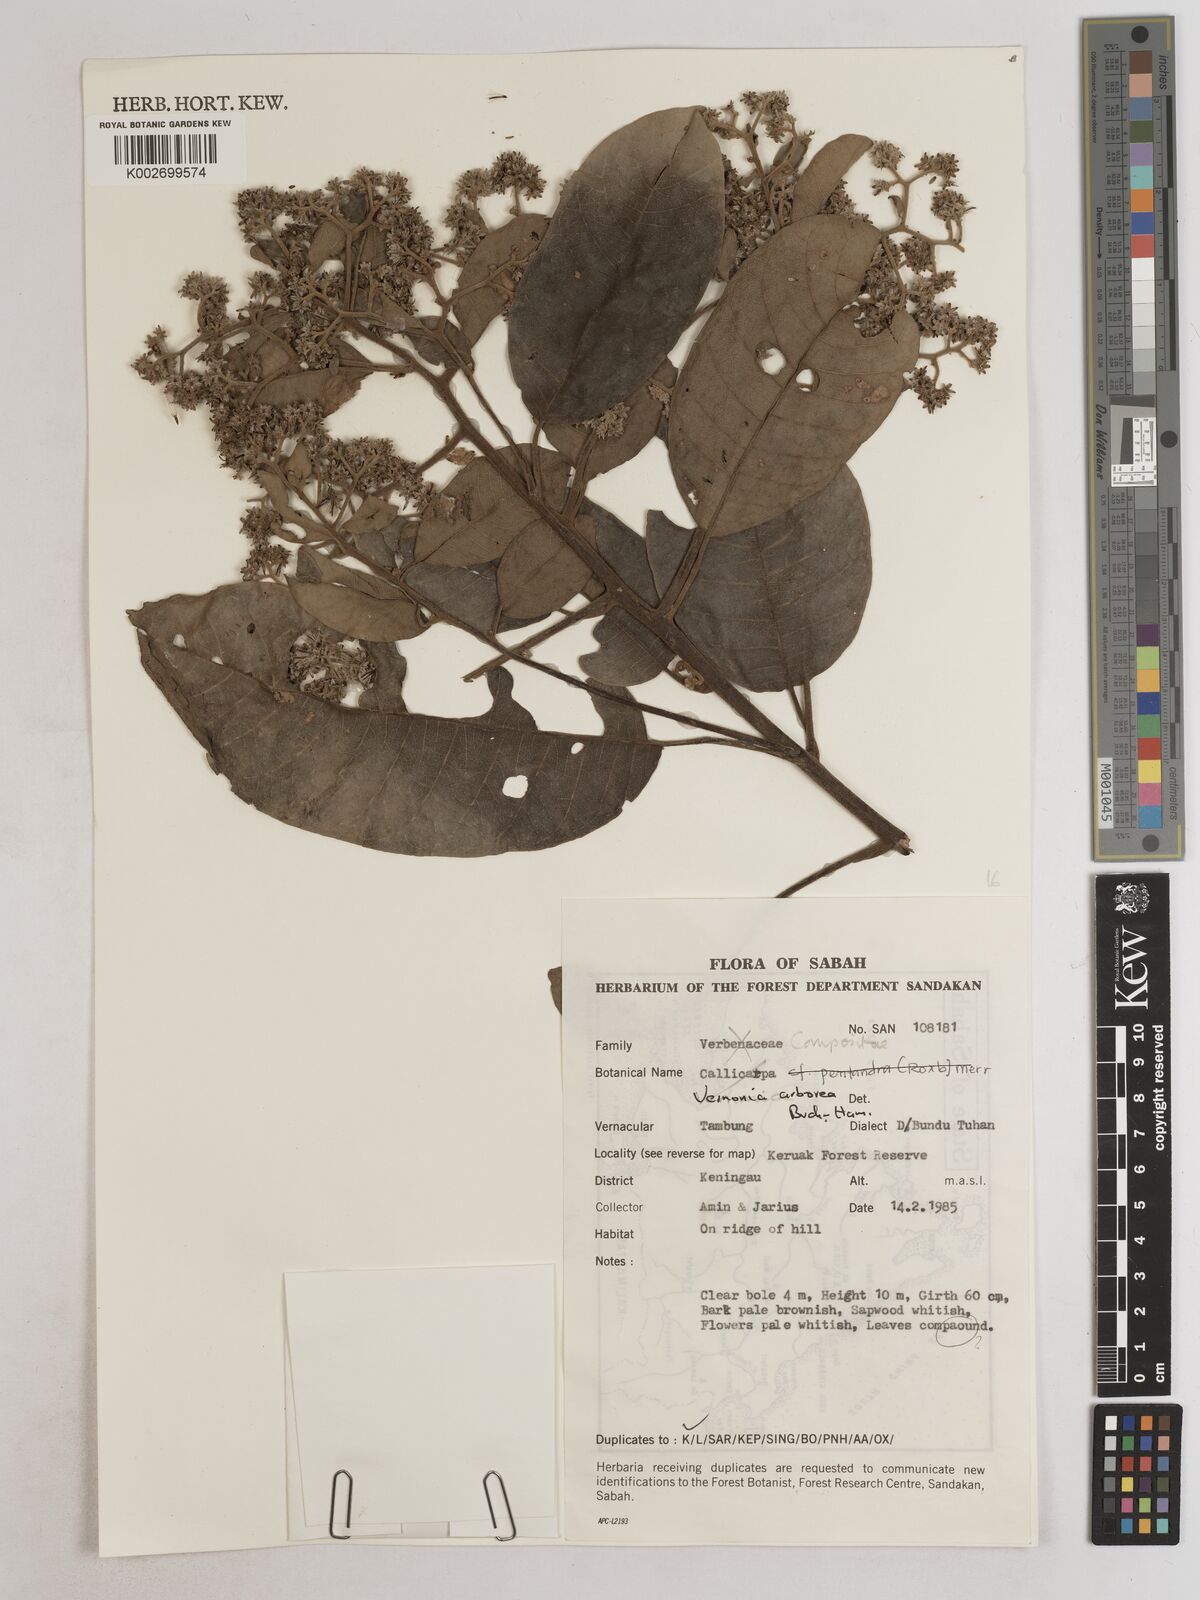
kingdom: Plantae
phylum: Tracheophyta
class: Magnoliopsida
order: Asterales
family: Asteraceae
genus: Strobocalyx
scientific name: Strobocalyx arborea
